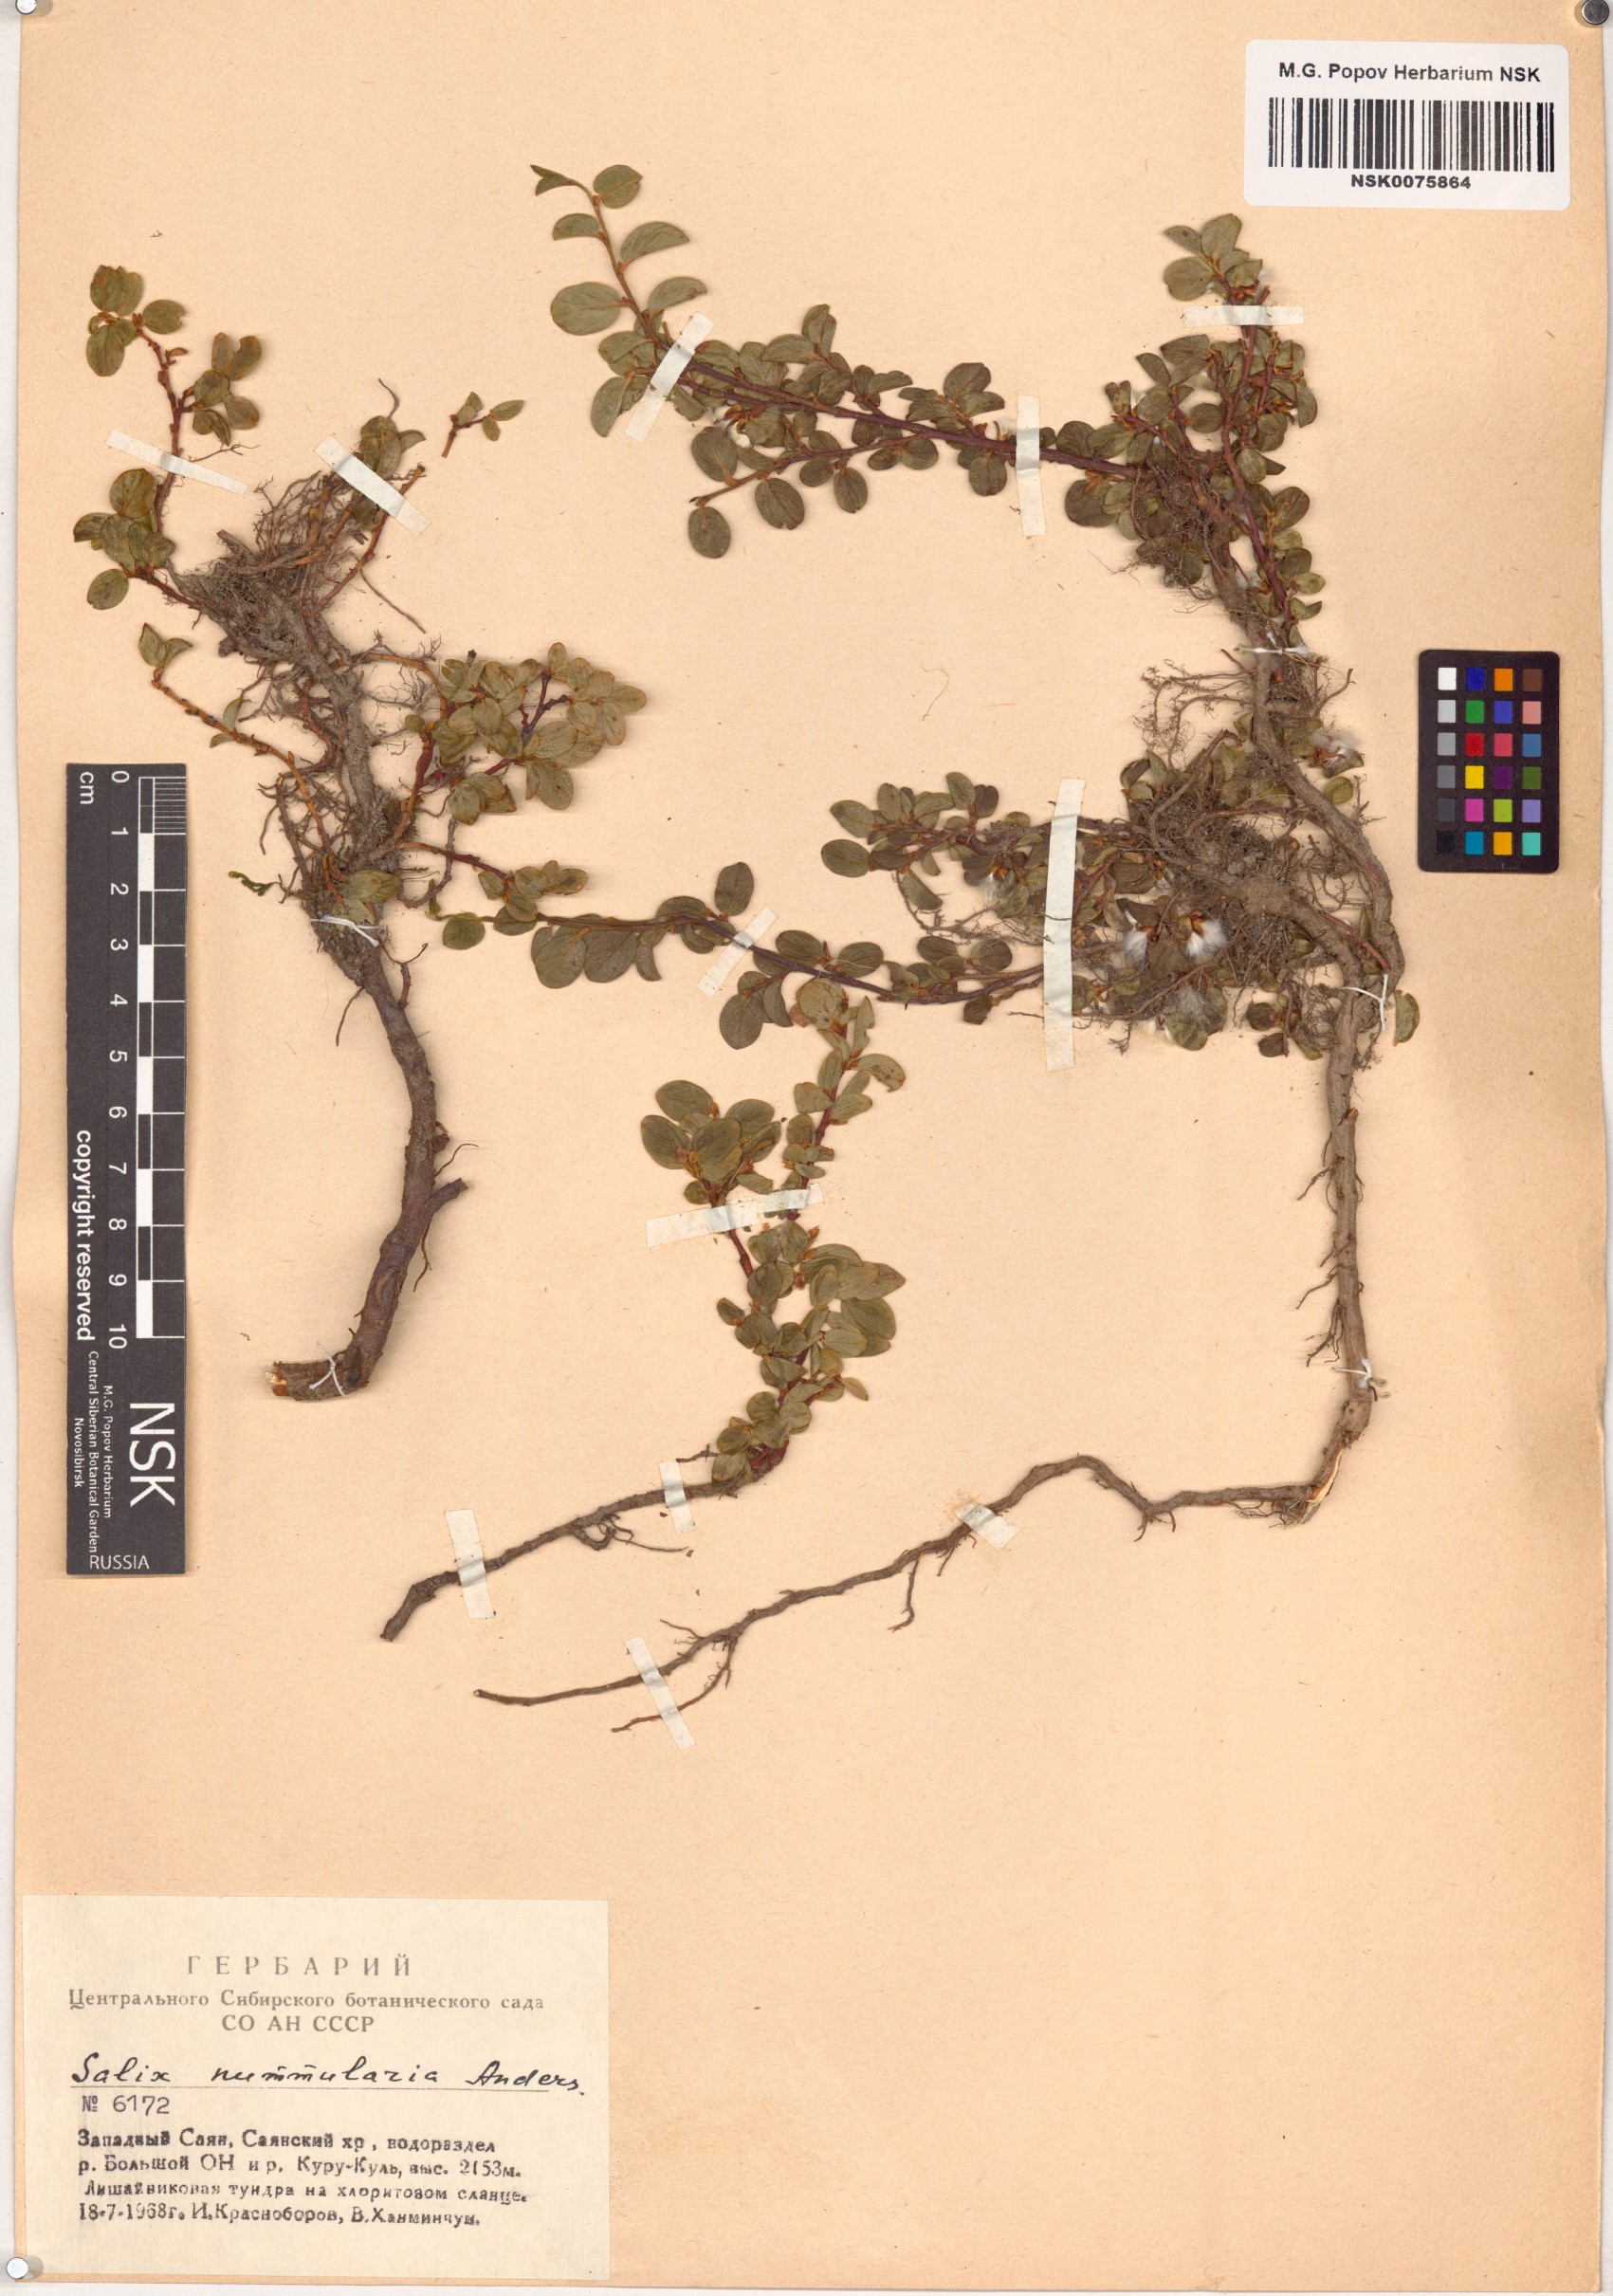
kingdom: Plantae
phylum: Tracheophyta
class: Magnoliopsida
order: Malpighiales
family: Salicaceae
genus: Salix
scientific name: Salix nummularia
